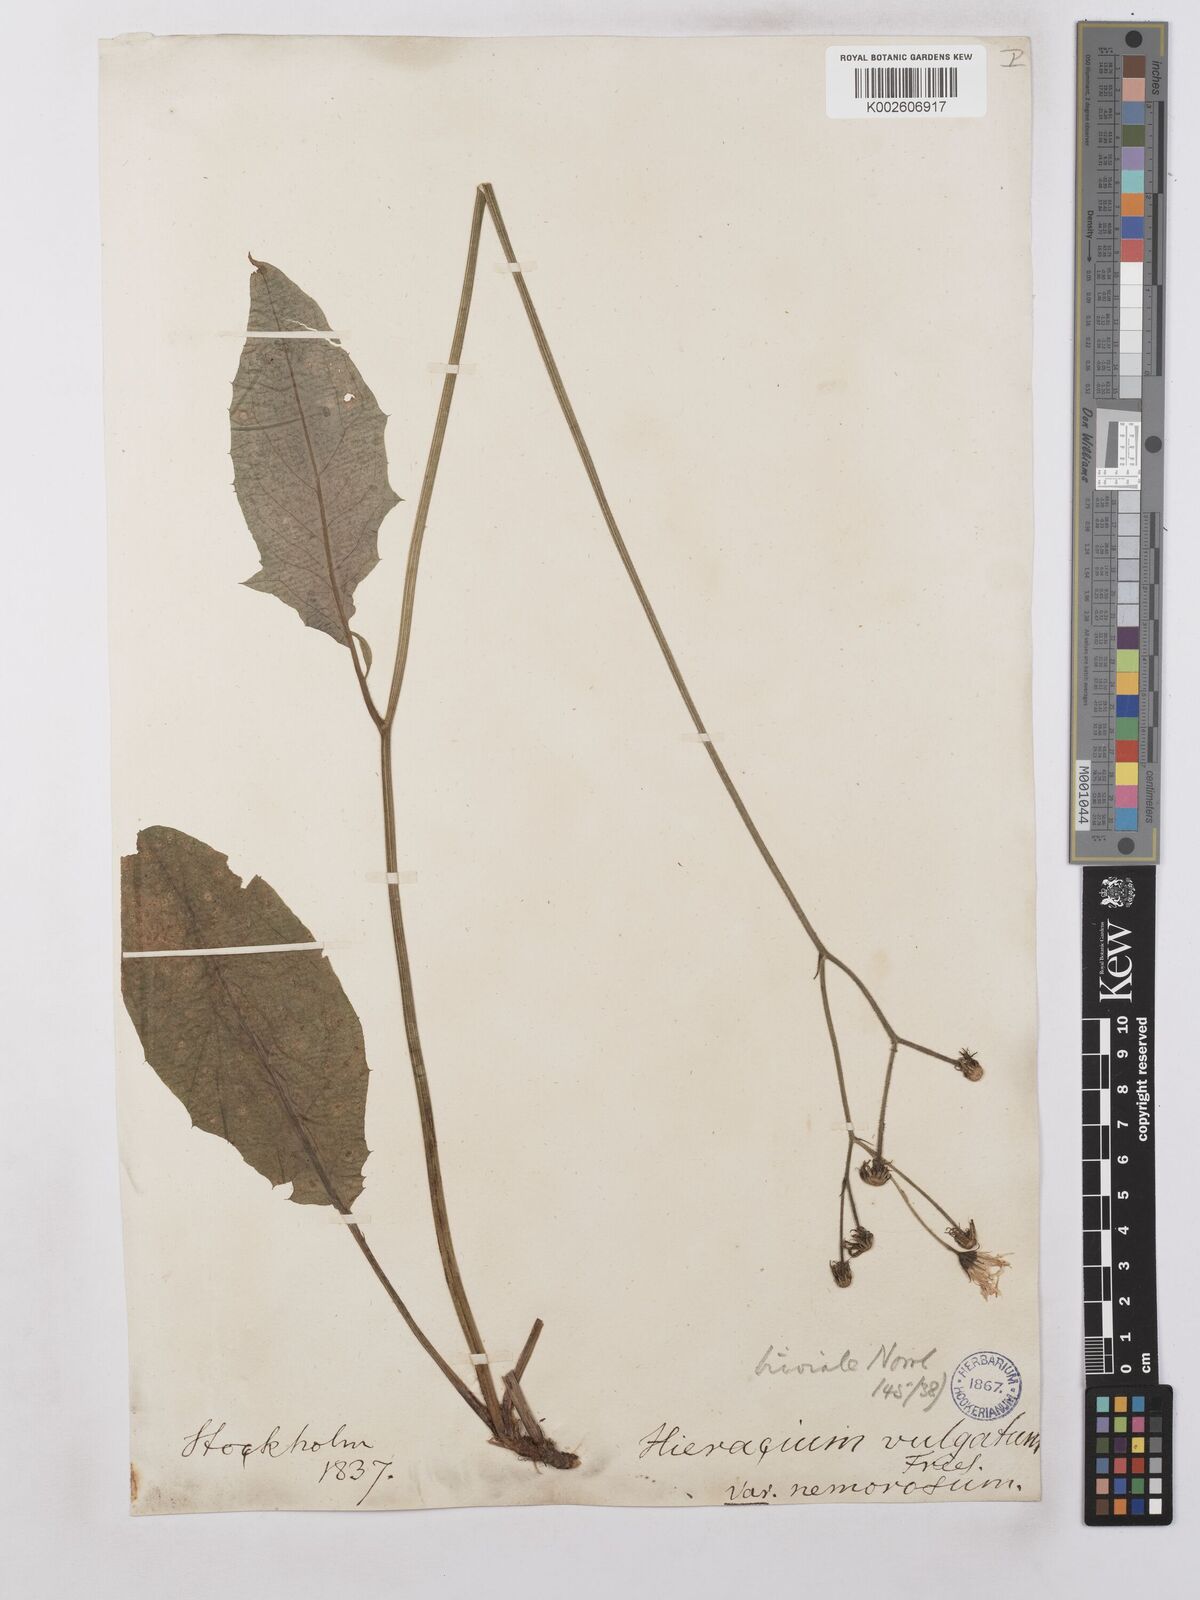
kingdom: Plantae
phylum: Tracheophyta
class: Magnoliopsida
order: Asterales
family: Asteraceae
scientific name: Asteraceae
